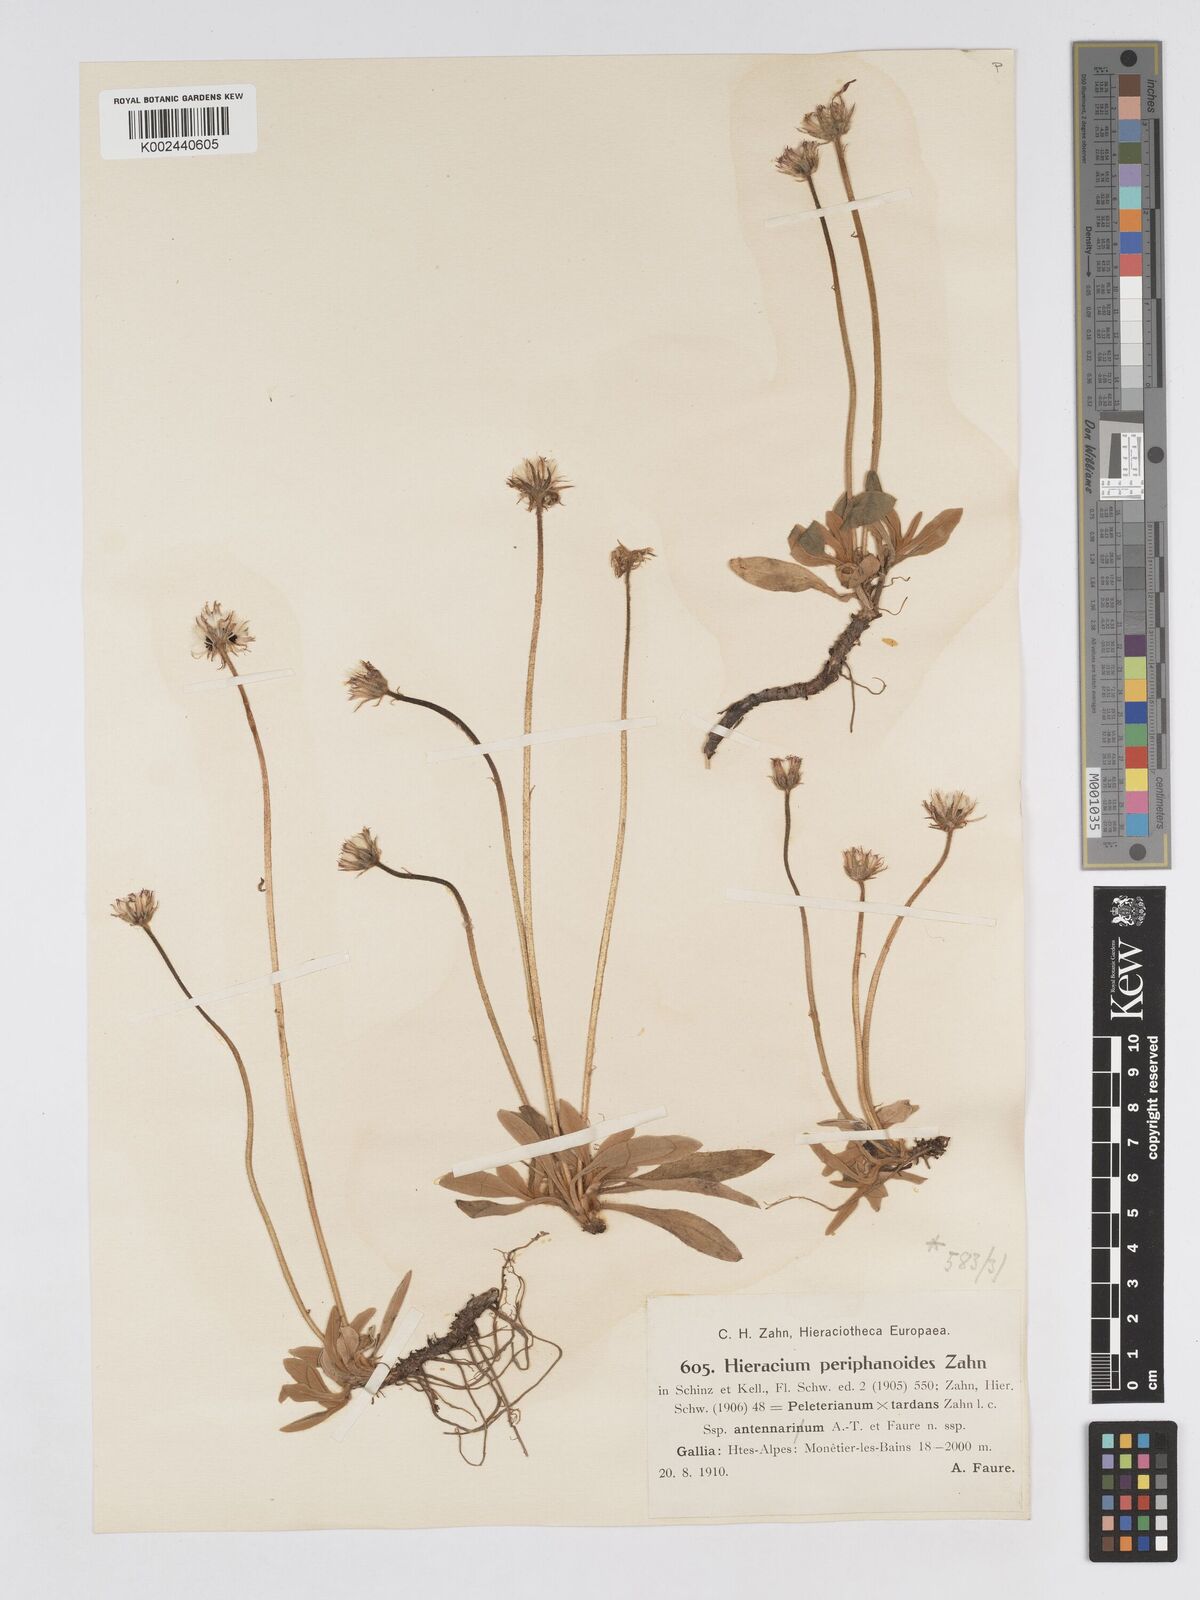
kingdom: Plantae
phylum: Tracheophyta
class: Magnoliopsida
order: Asterales
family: Asteraceae
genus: Pilosella
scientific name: Pilosella periphanoides
